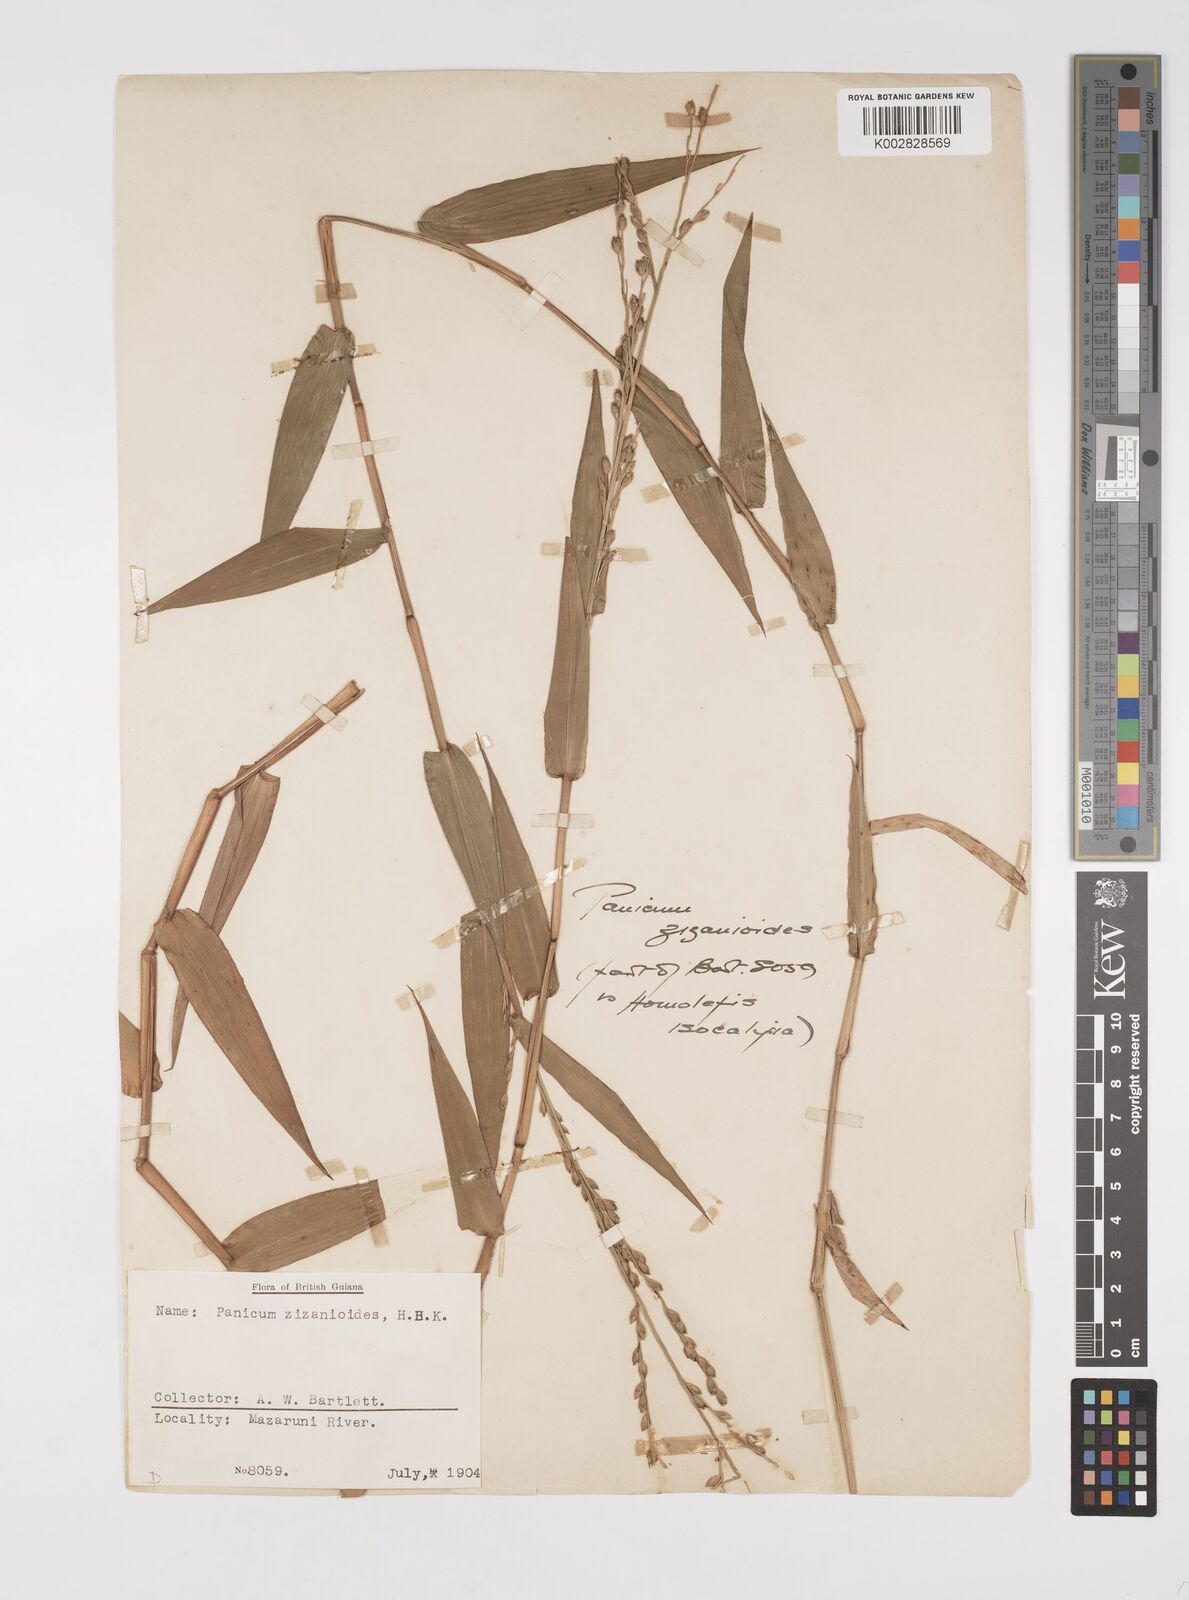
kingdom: Plantae
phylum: Tracheophyta
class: Liliopsida
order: Poales
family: Poaceae
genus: Acroceras
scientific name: Acroceras zizanioides
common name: Oat grass
